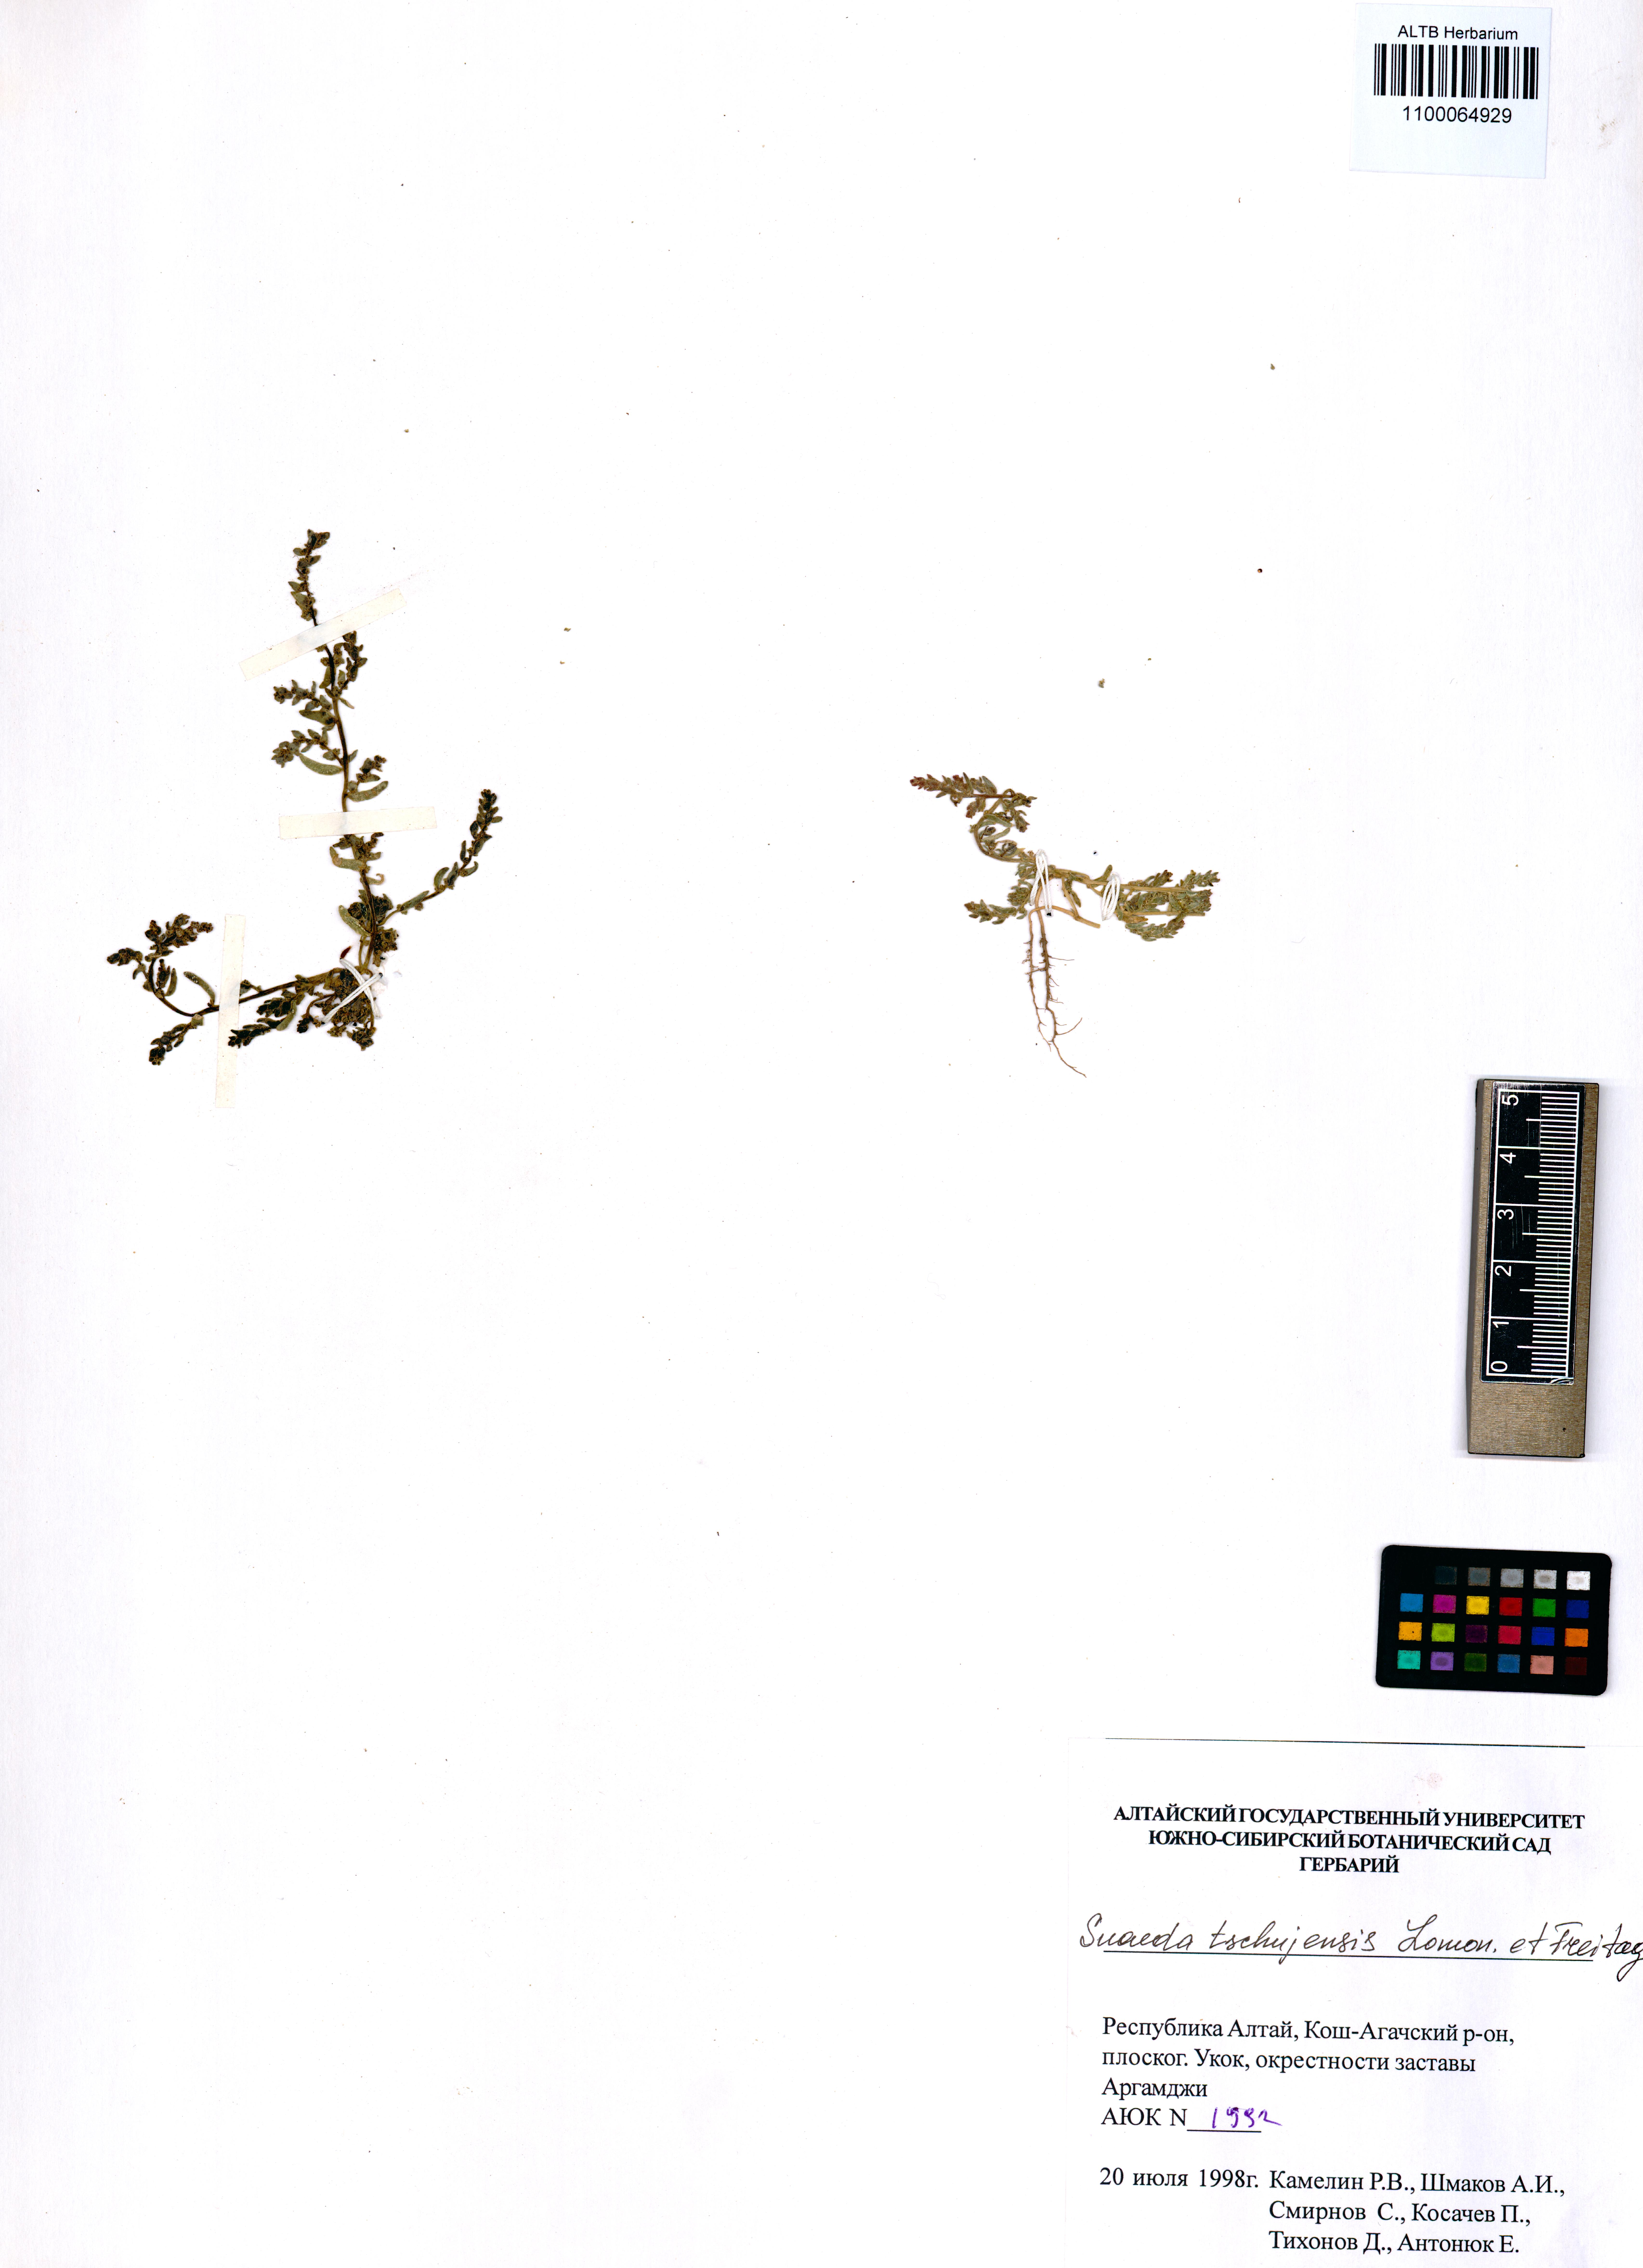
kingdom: Plantae
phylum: Tracheophyta
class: Magnoliopsida
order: Caryophyllales
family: Amaranthaceae
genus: Suaeda
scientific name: Suaeda tschujensis
